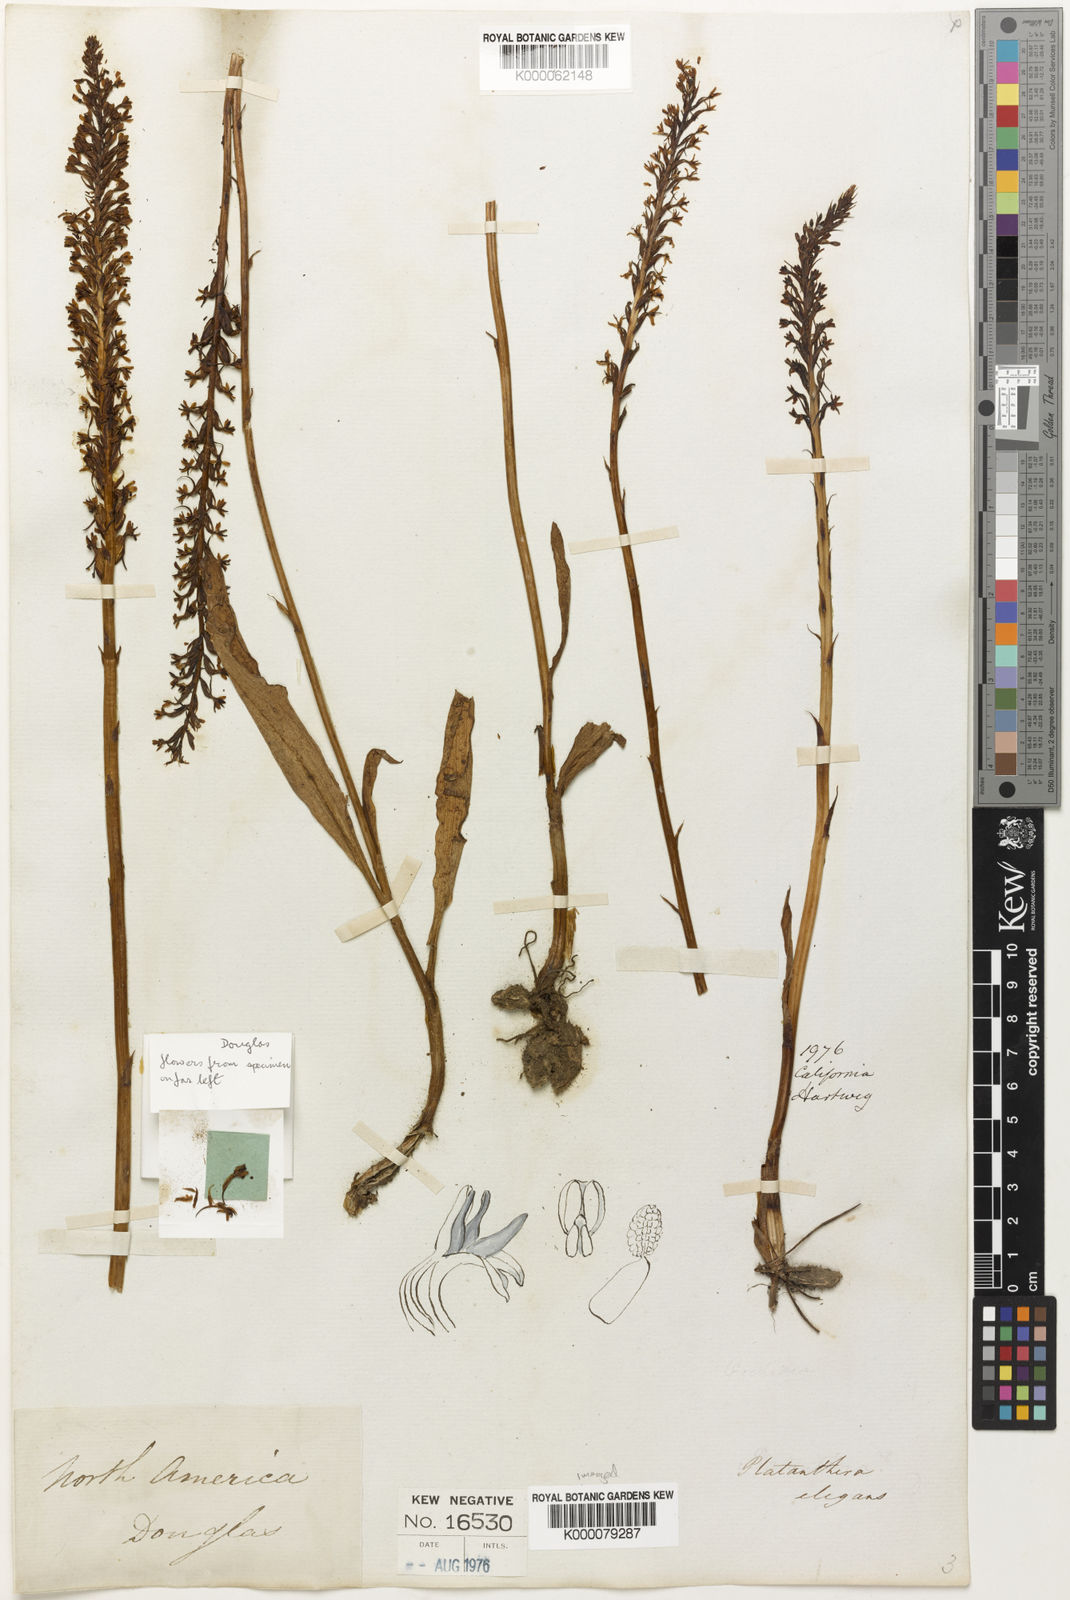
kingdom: Plantae
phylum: Tracheophyta
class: Liliopsida
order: Asparagales
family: Orchidaceae
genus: Platanthera
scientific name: Platanthera elegans
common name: Coast piperia
